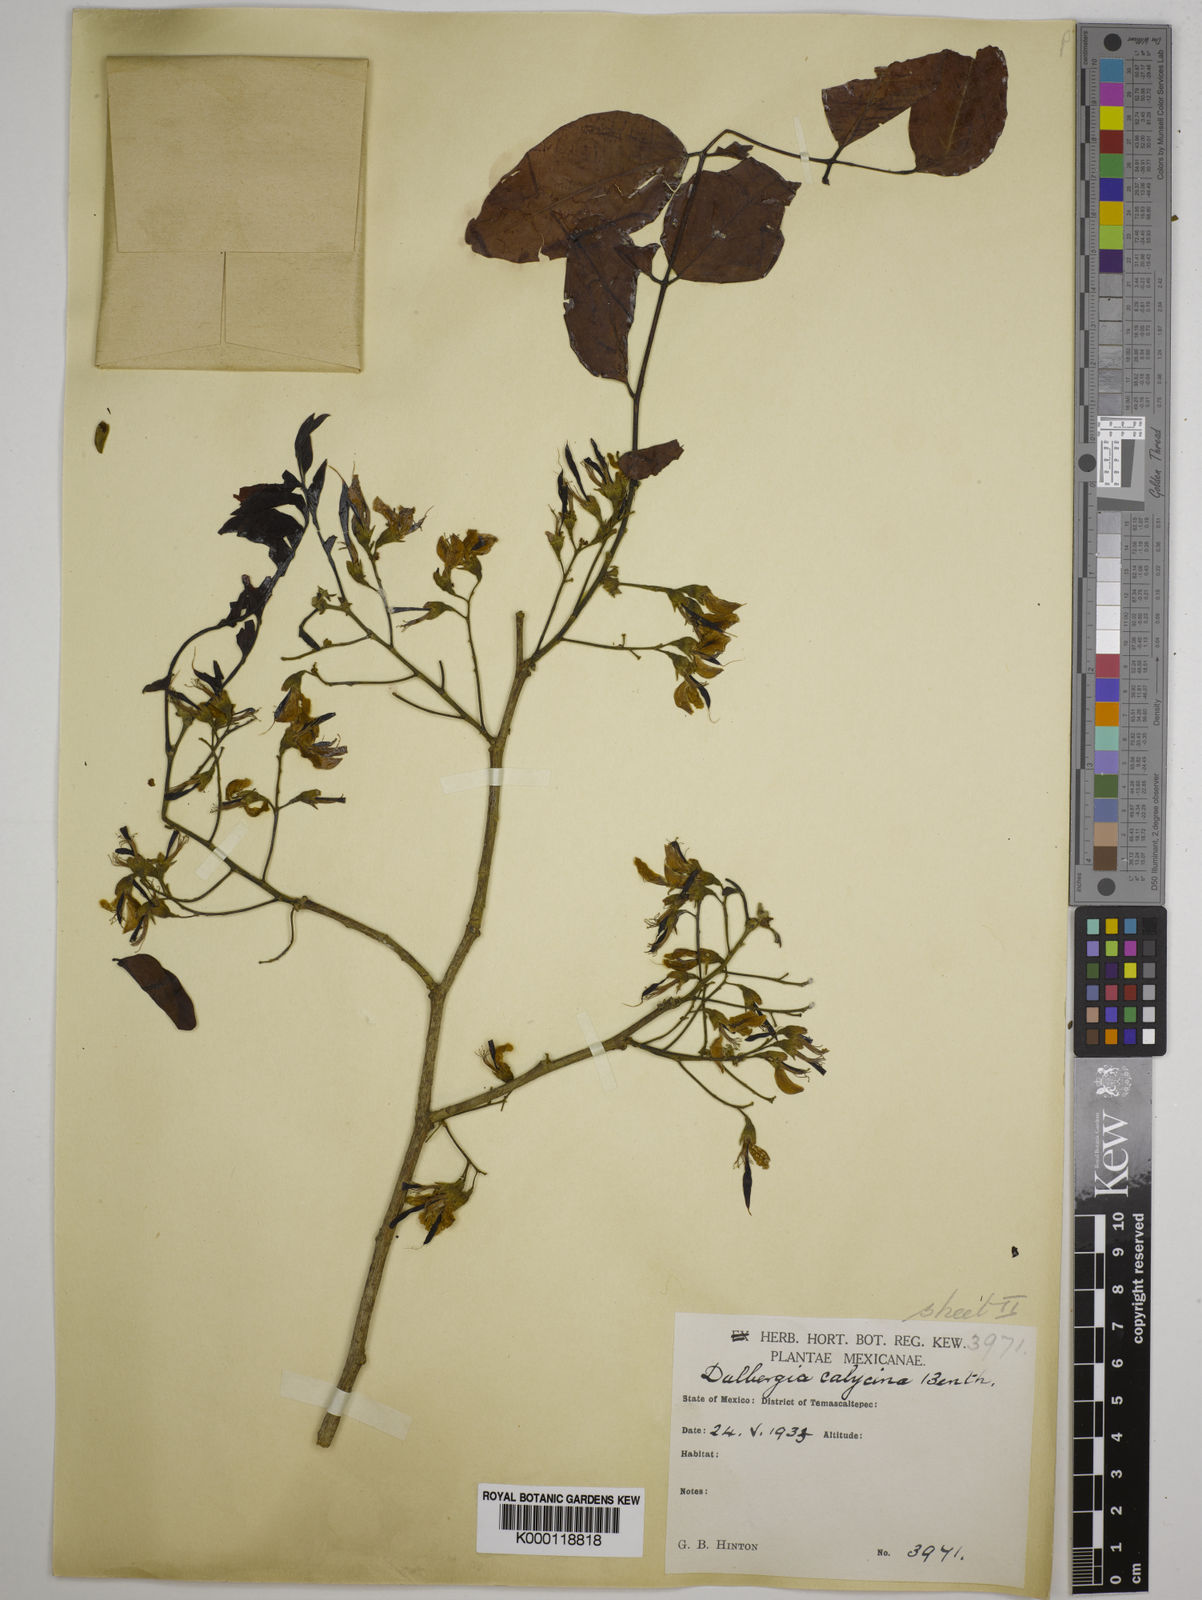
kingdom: Plantae
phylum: Tracheophyta
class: Magnoliopsida
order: Fabales
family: Fabaceae
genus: Dalbergia
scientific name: Dalbergia calycina
